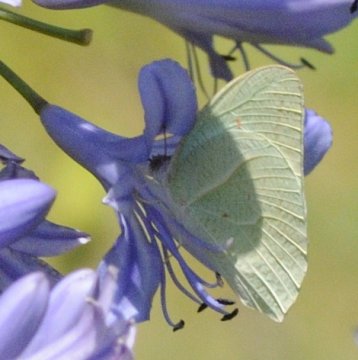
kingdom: Animalia
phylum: Arthropoda
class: Insecta
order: Lepidoptera
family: Pieridae
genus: Catopsilia
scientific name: Catopsilia florella
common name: African Migrant
